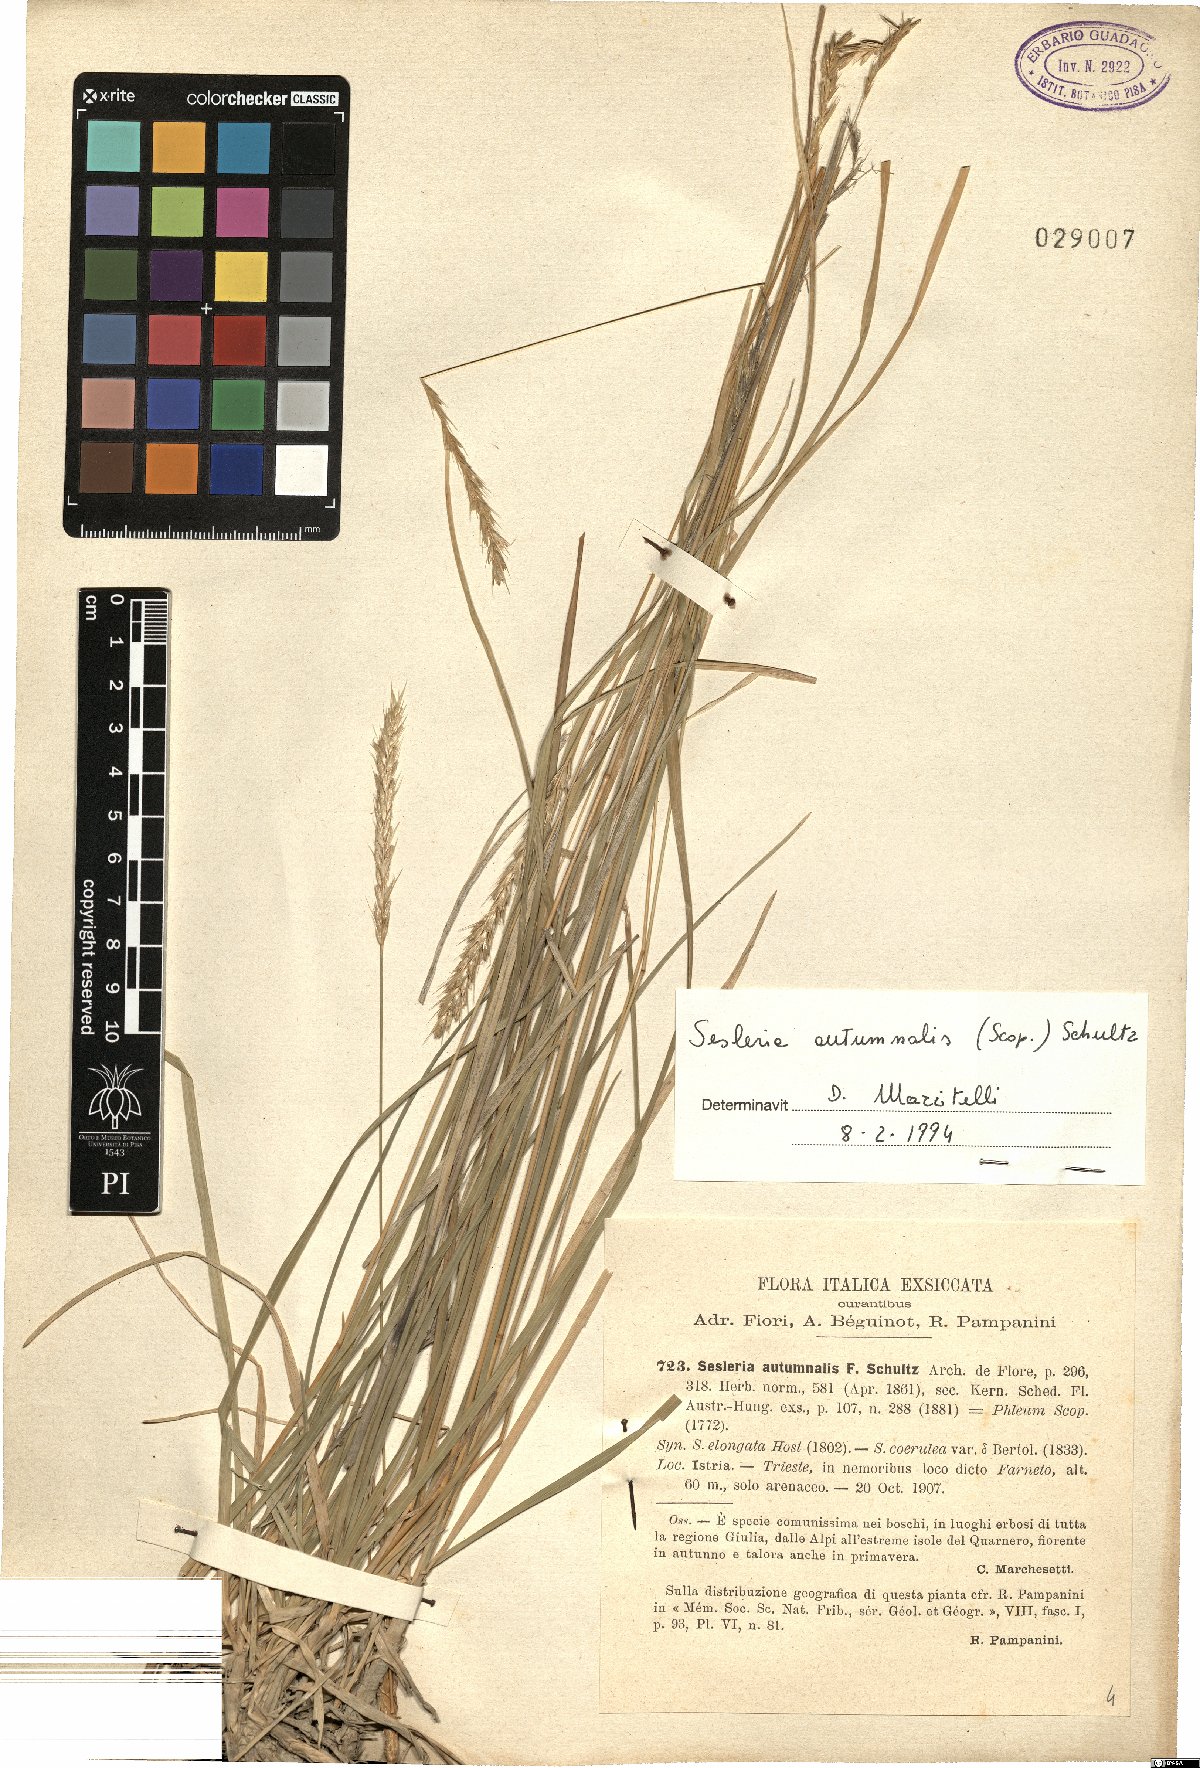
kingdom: Plantae
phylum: Tracheophyta
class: Liliopsida
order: Poales
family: Poaceae
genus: Sesleria
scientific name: Sesleria autumnalis
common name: Autumn moor grass
